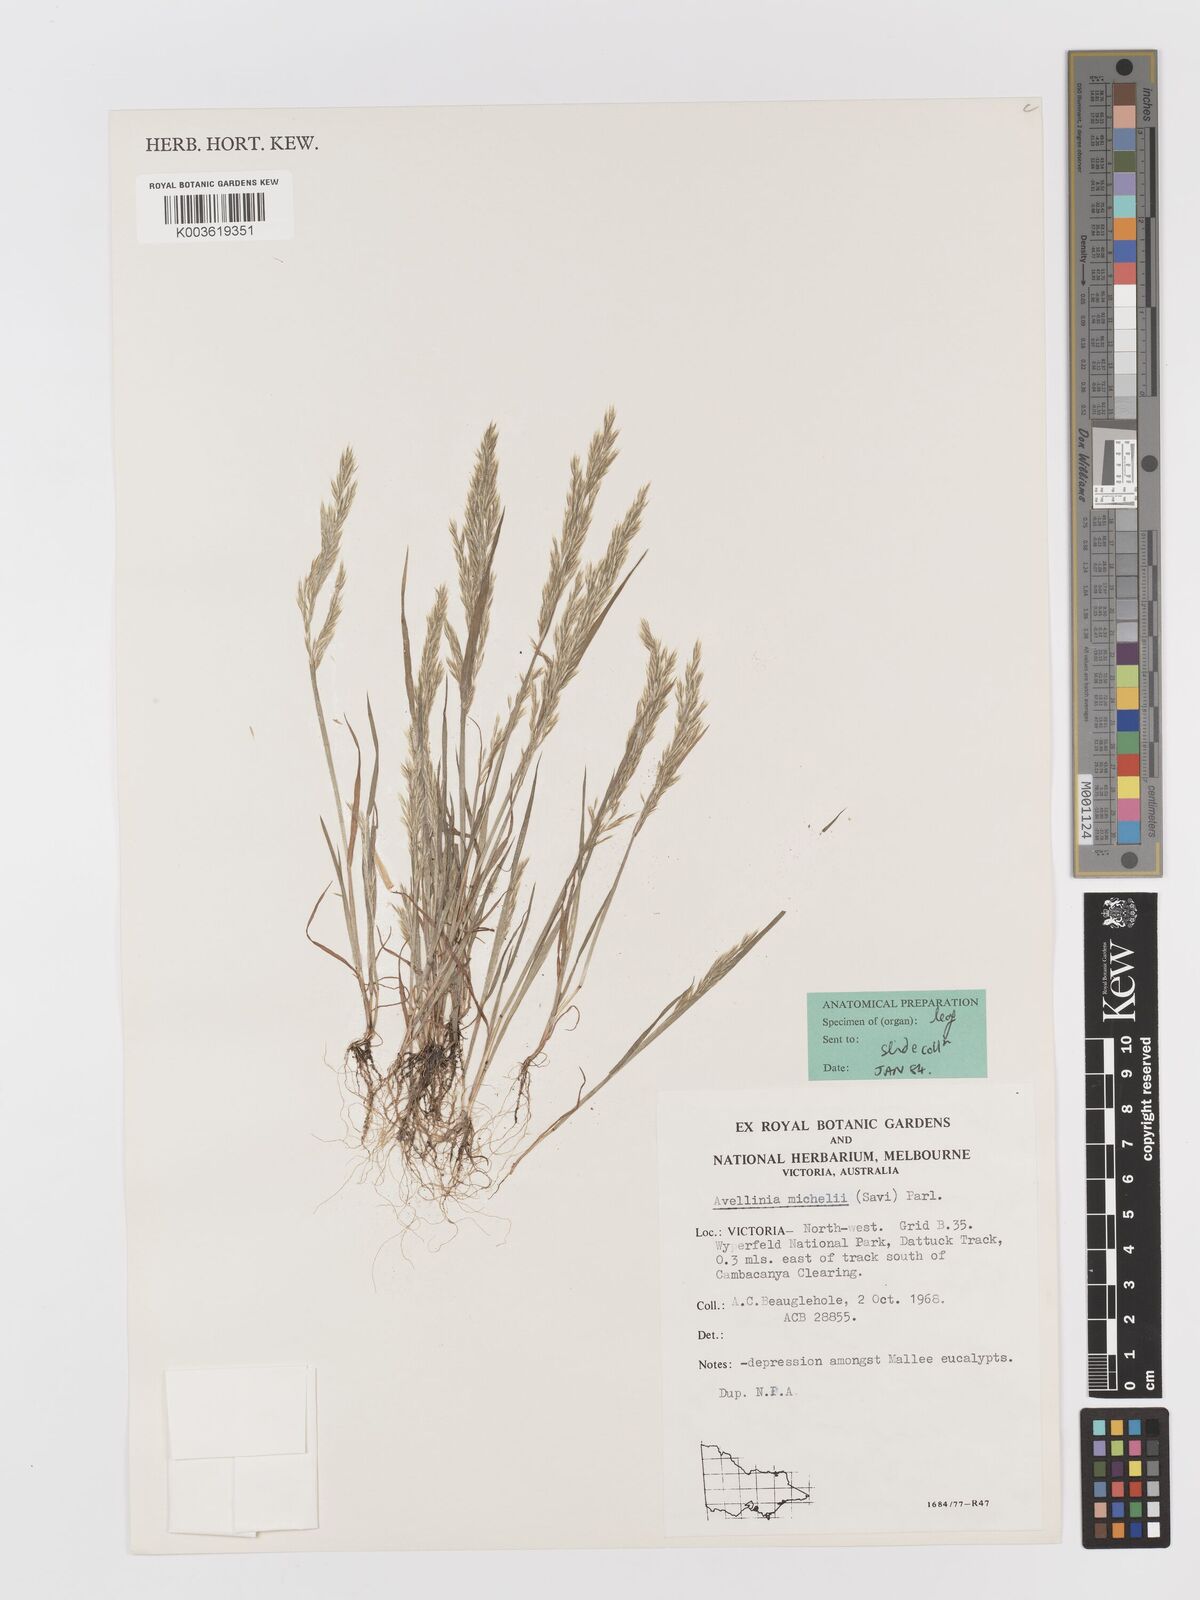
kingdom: Plantae
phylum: Tracheophyta
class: Liliopsida
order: Poales
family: Poaceae
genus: Rostraria
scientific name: Rostraria
